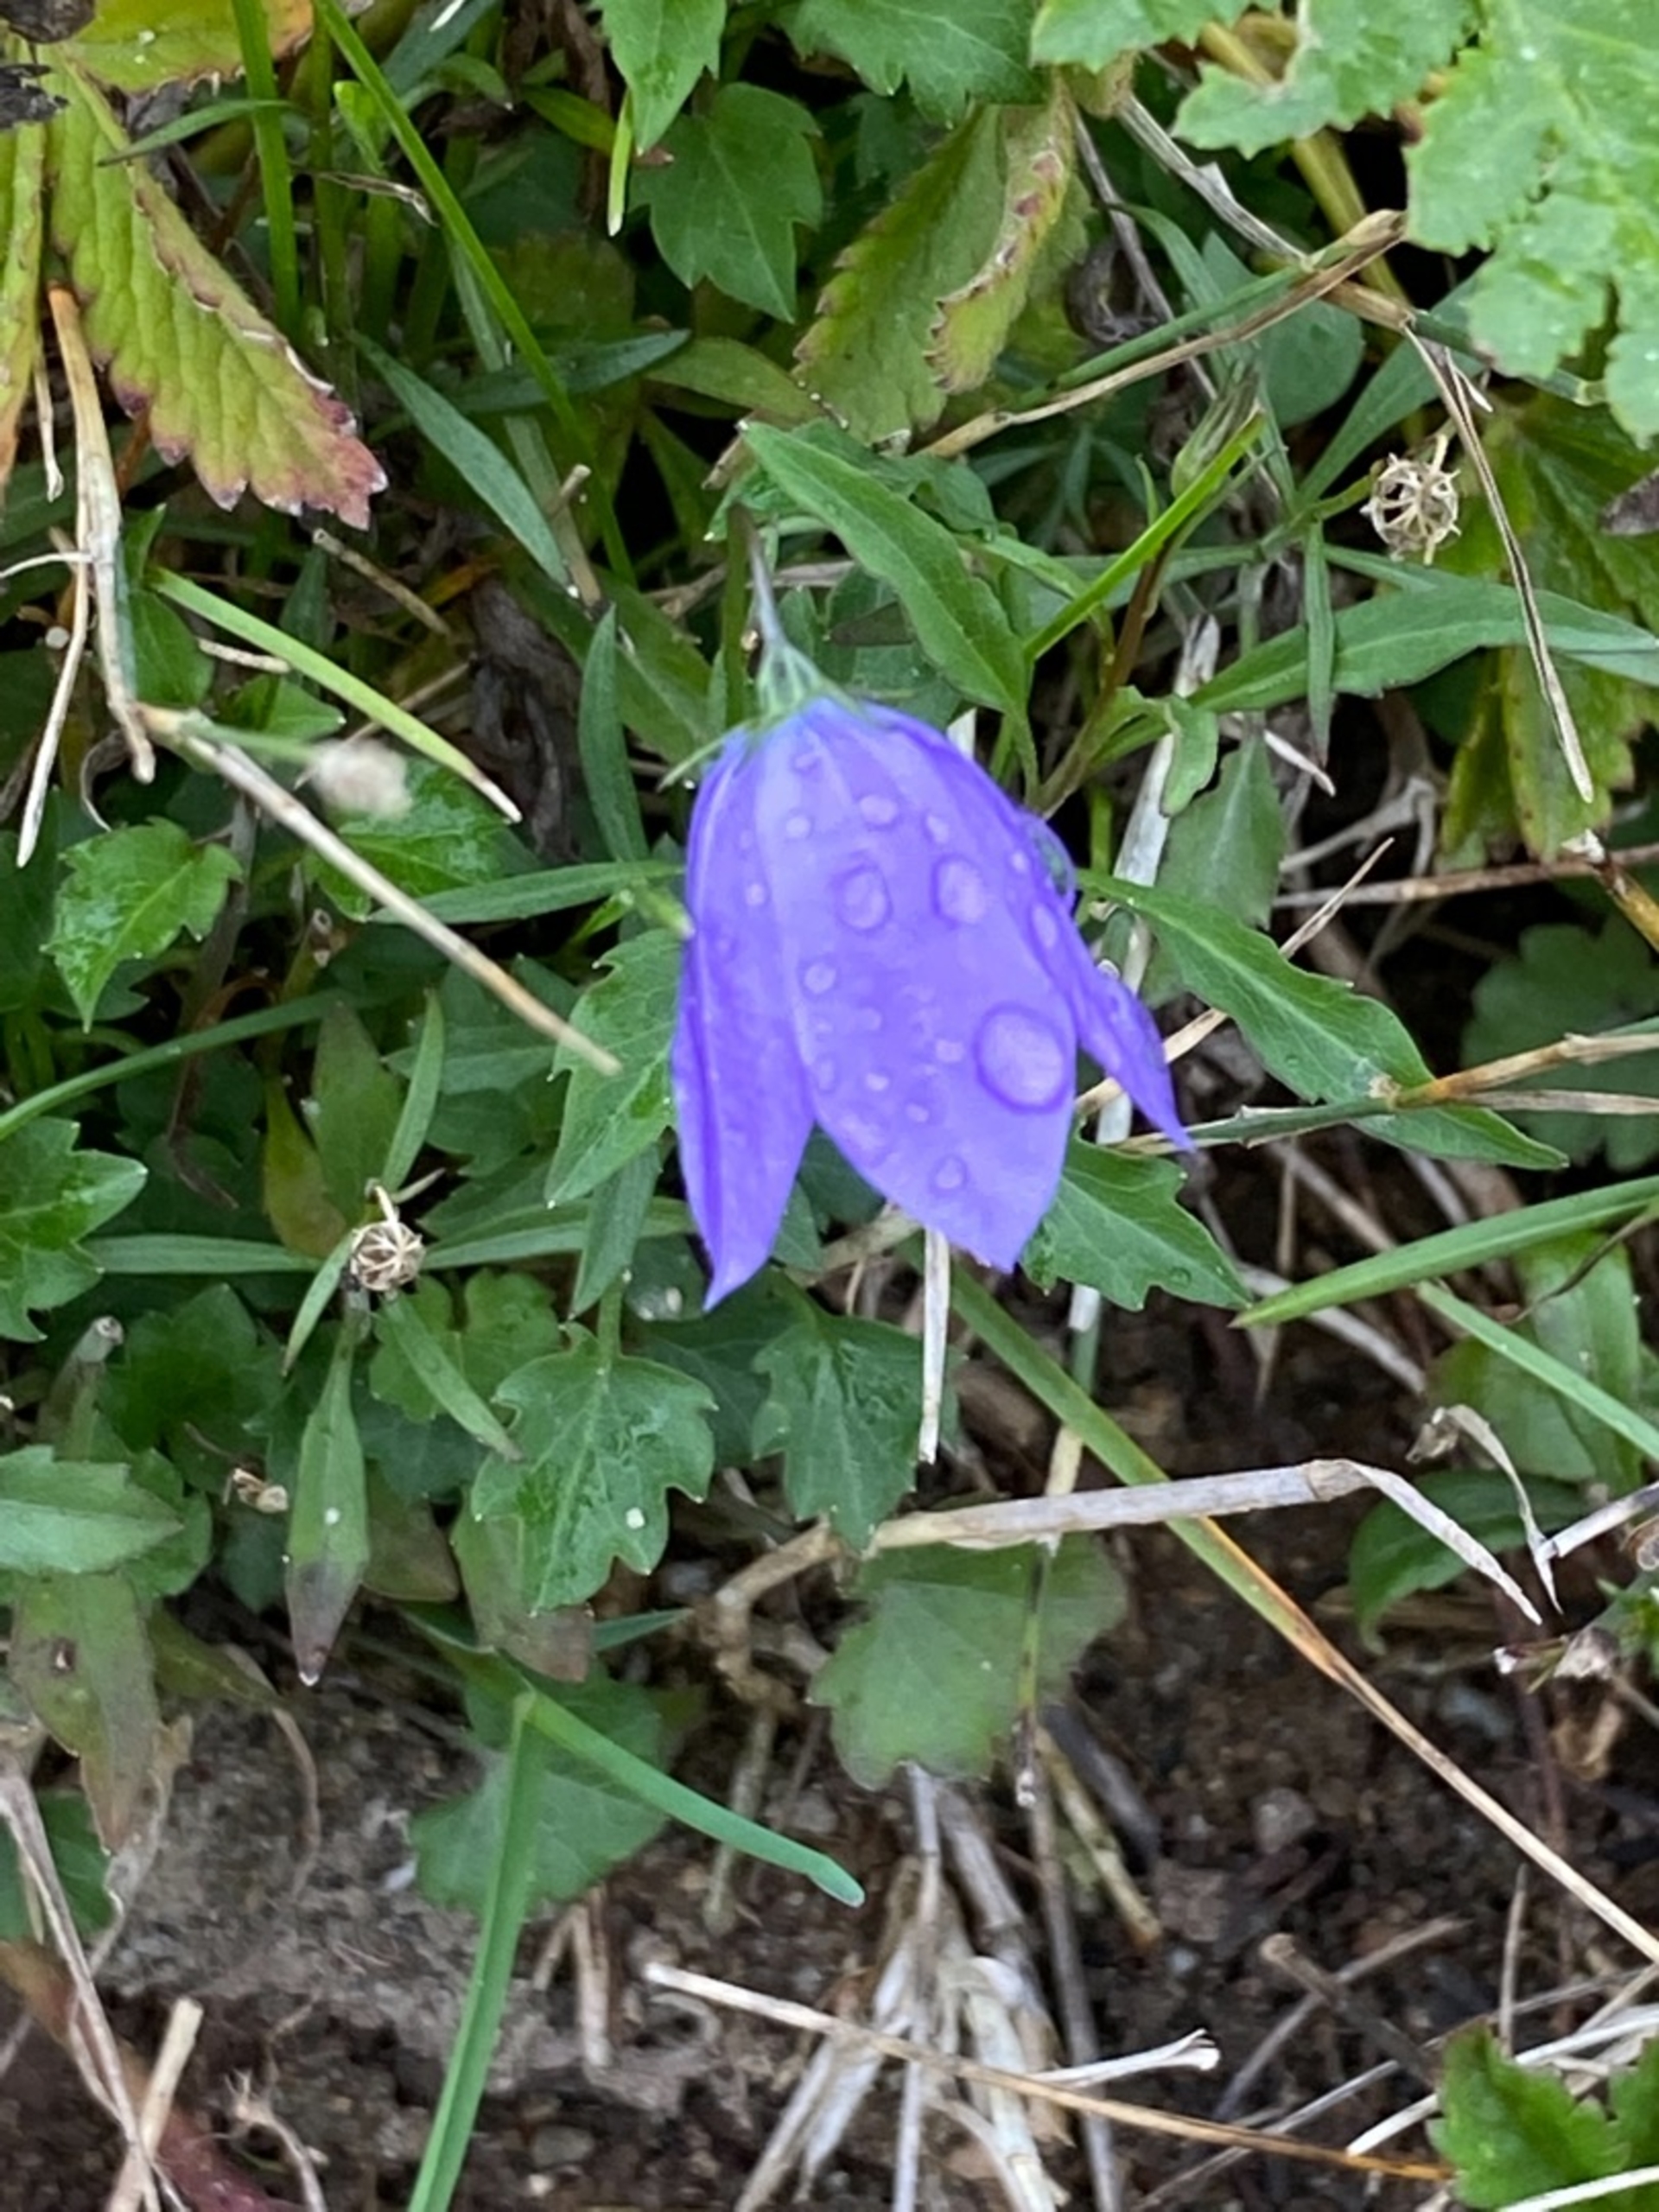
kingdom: Plantae
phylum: Tracheophyta
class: Magnoliopsida
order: Asterales
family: Campanulaceae
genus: Campanula
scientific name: Campanula rotundifolia
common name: Liden klokke
